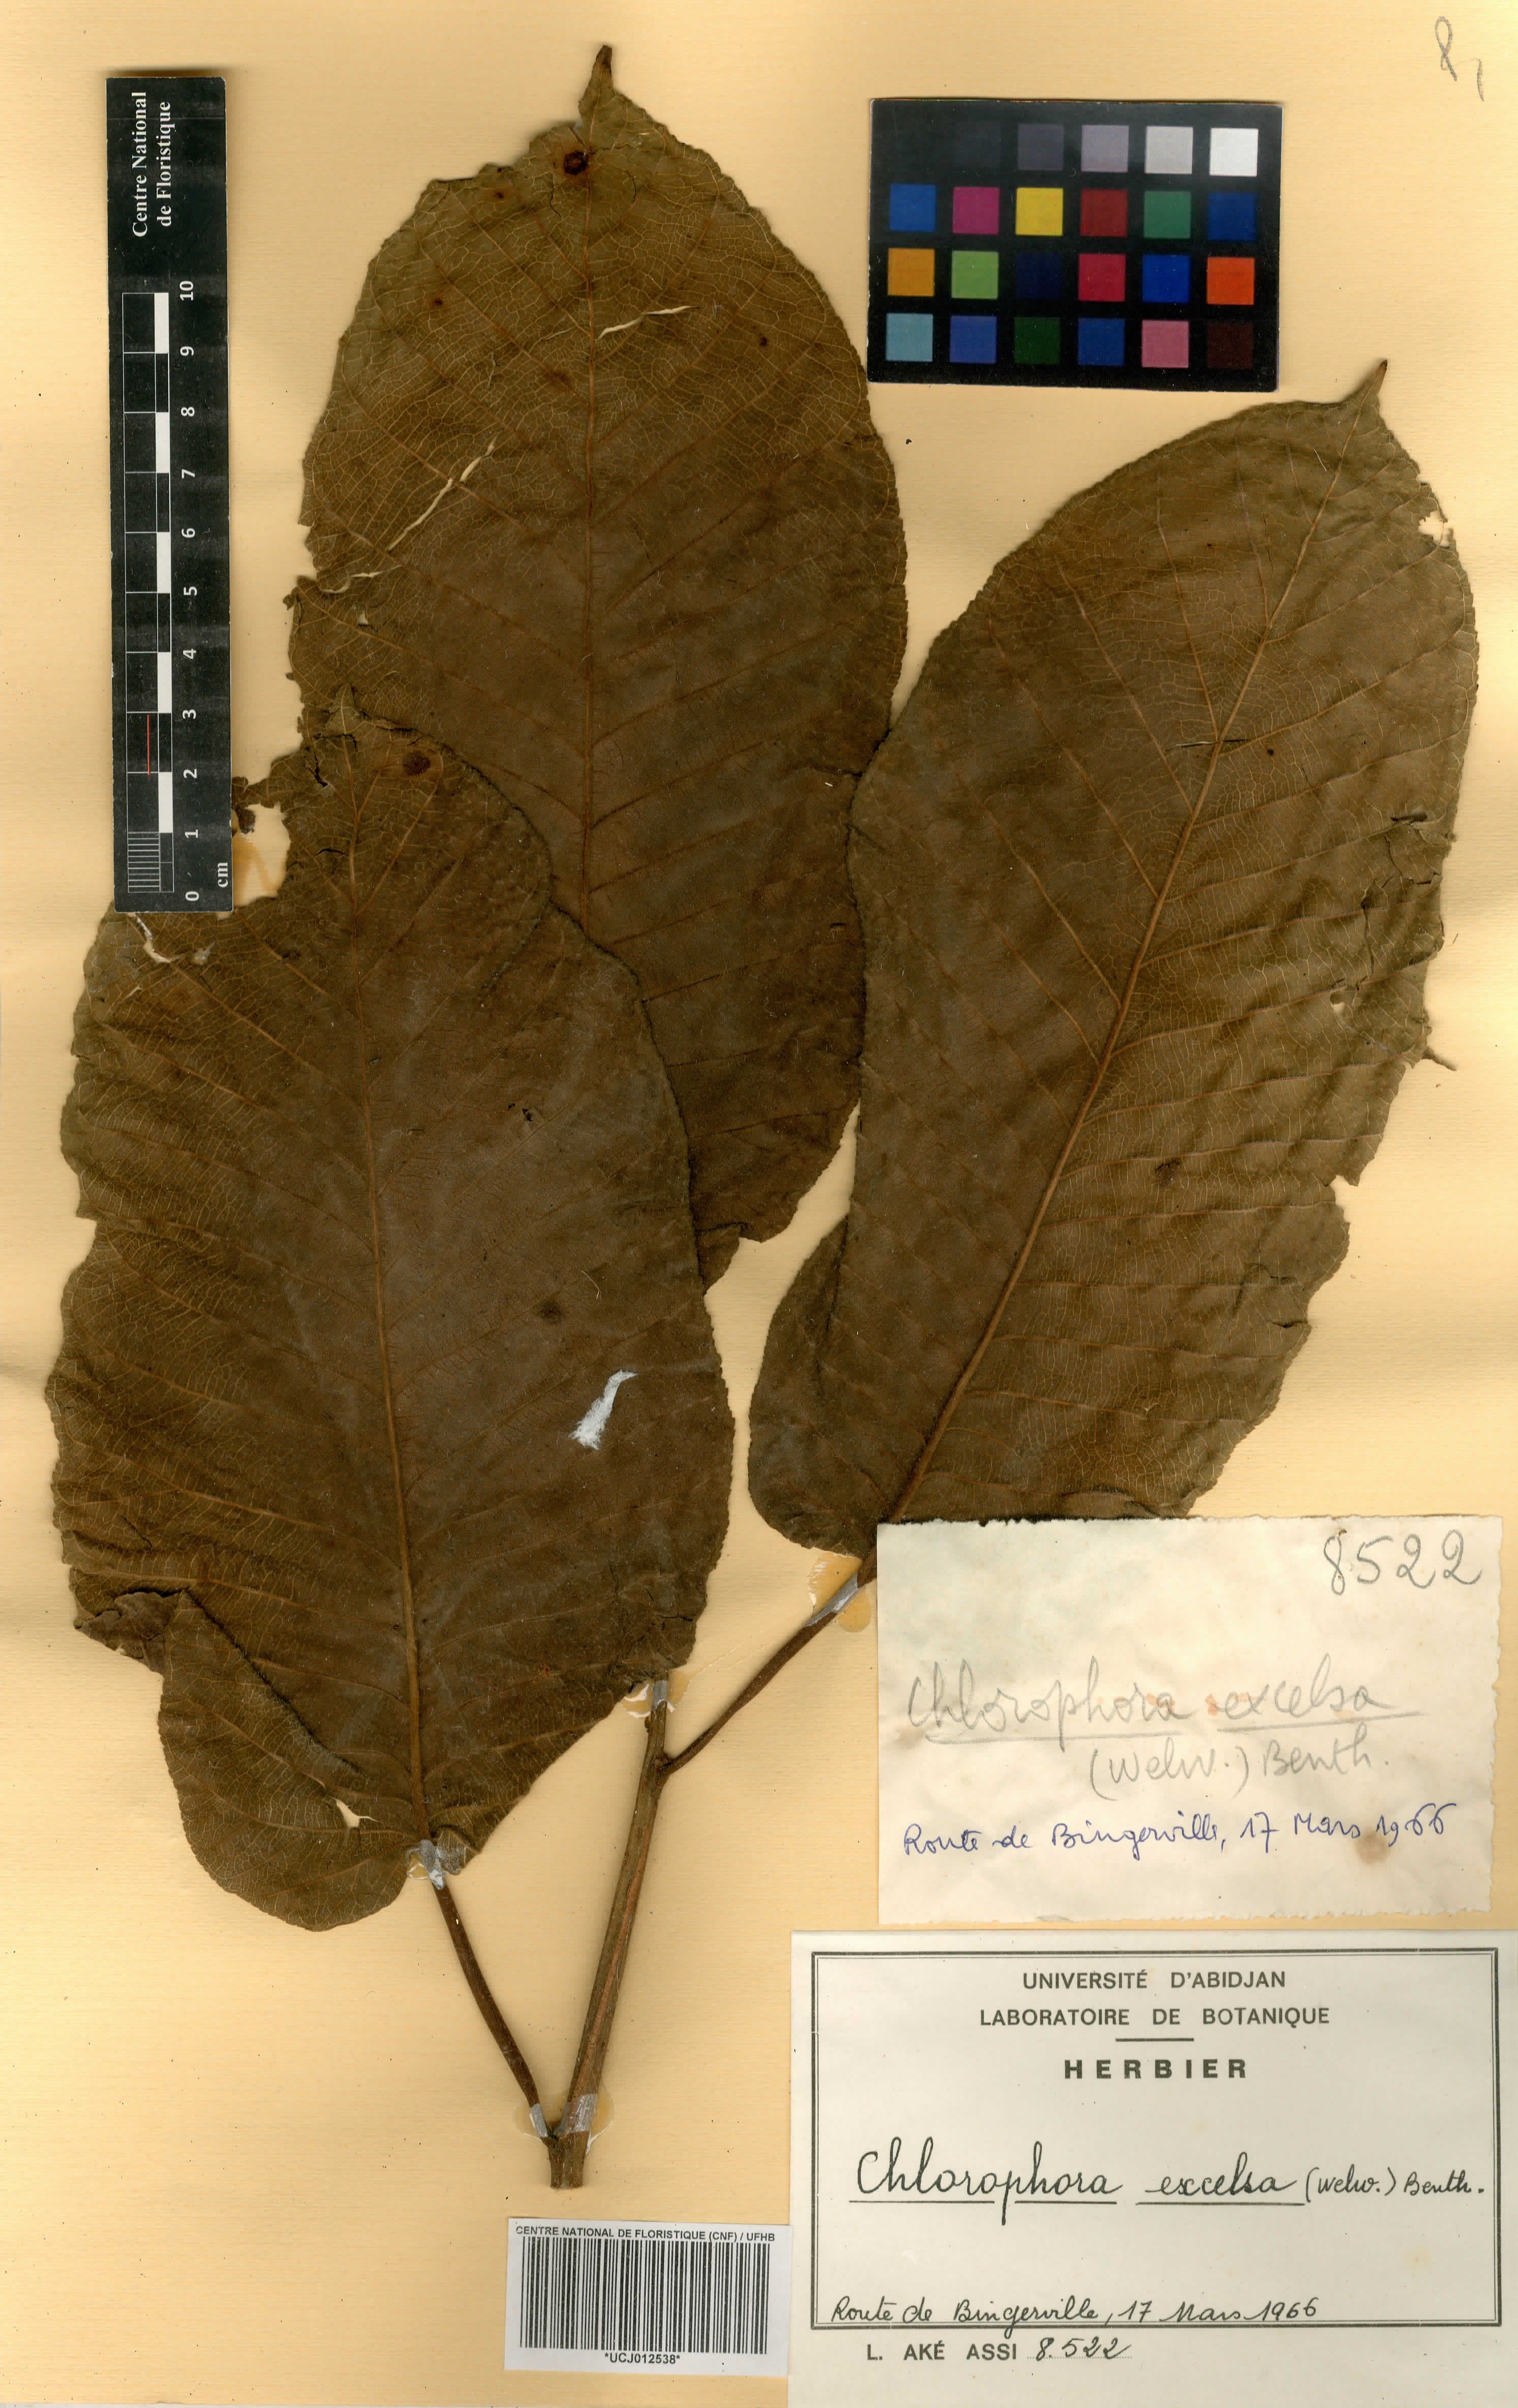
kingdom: Plantae
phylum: Tracheophyta
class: Magnoliopsida
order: Rosales
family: Moraceae
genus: Milicia
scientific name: Milicia excelsa
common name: African teak
